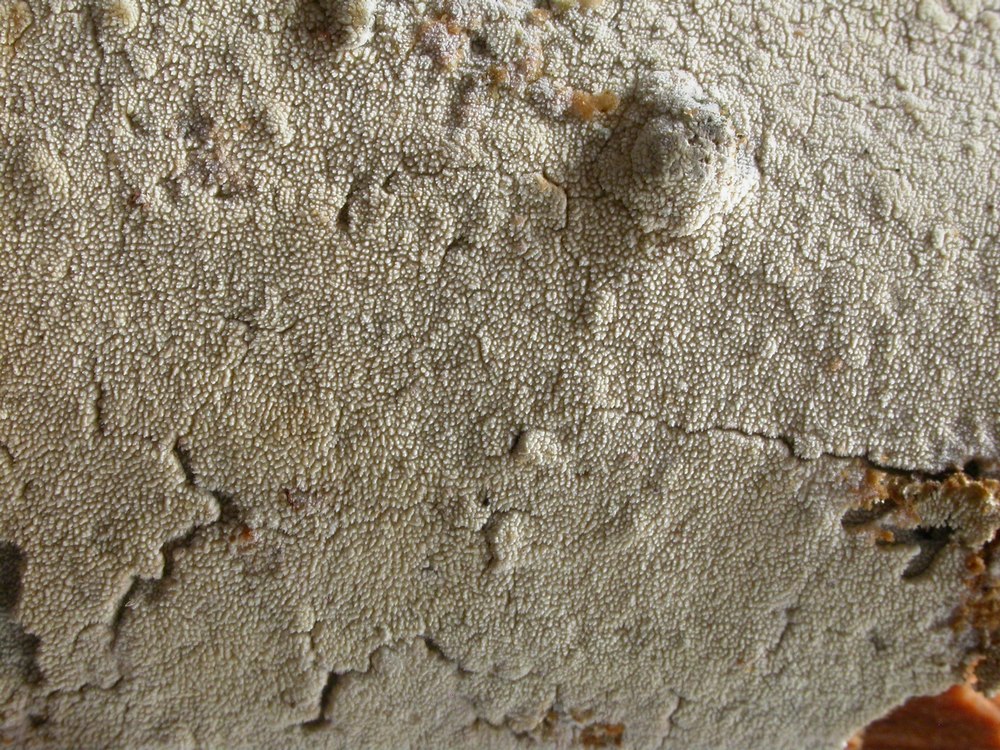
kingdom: Fungi
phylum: Basidiomycota
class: Agaricomycetes
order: Hymenochaetales
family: Schizoporaceae
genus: Xylodon
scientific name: Xylodon nesporii
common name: fintandet tandsvamp
